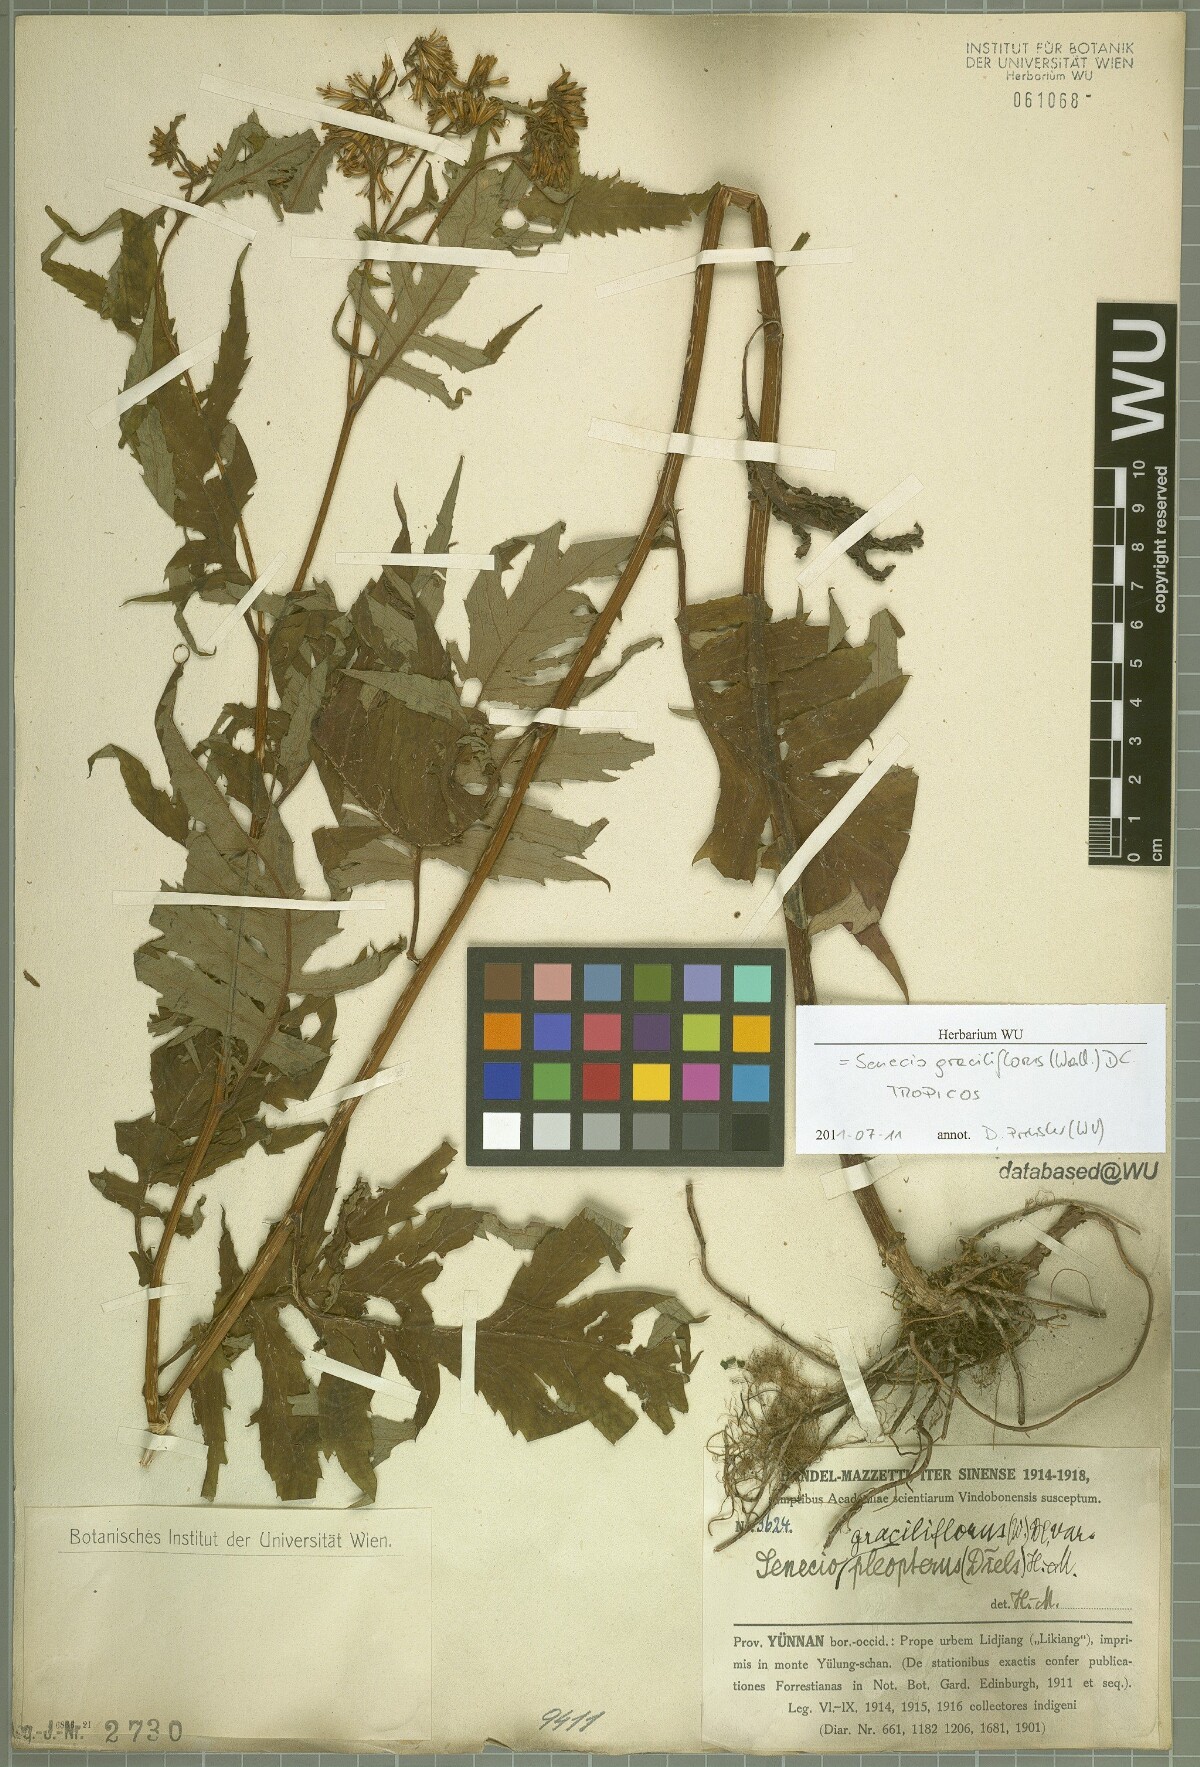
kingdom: Plantae
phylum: Tracheophyta
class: Magnoliopsida
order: Asterales
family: Asteraceae
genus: Jacobaea
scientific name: Jacobaea graciliflora
